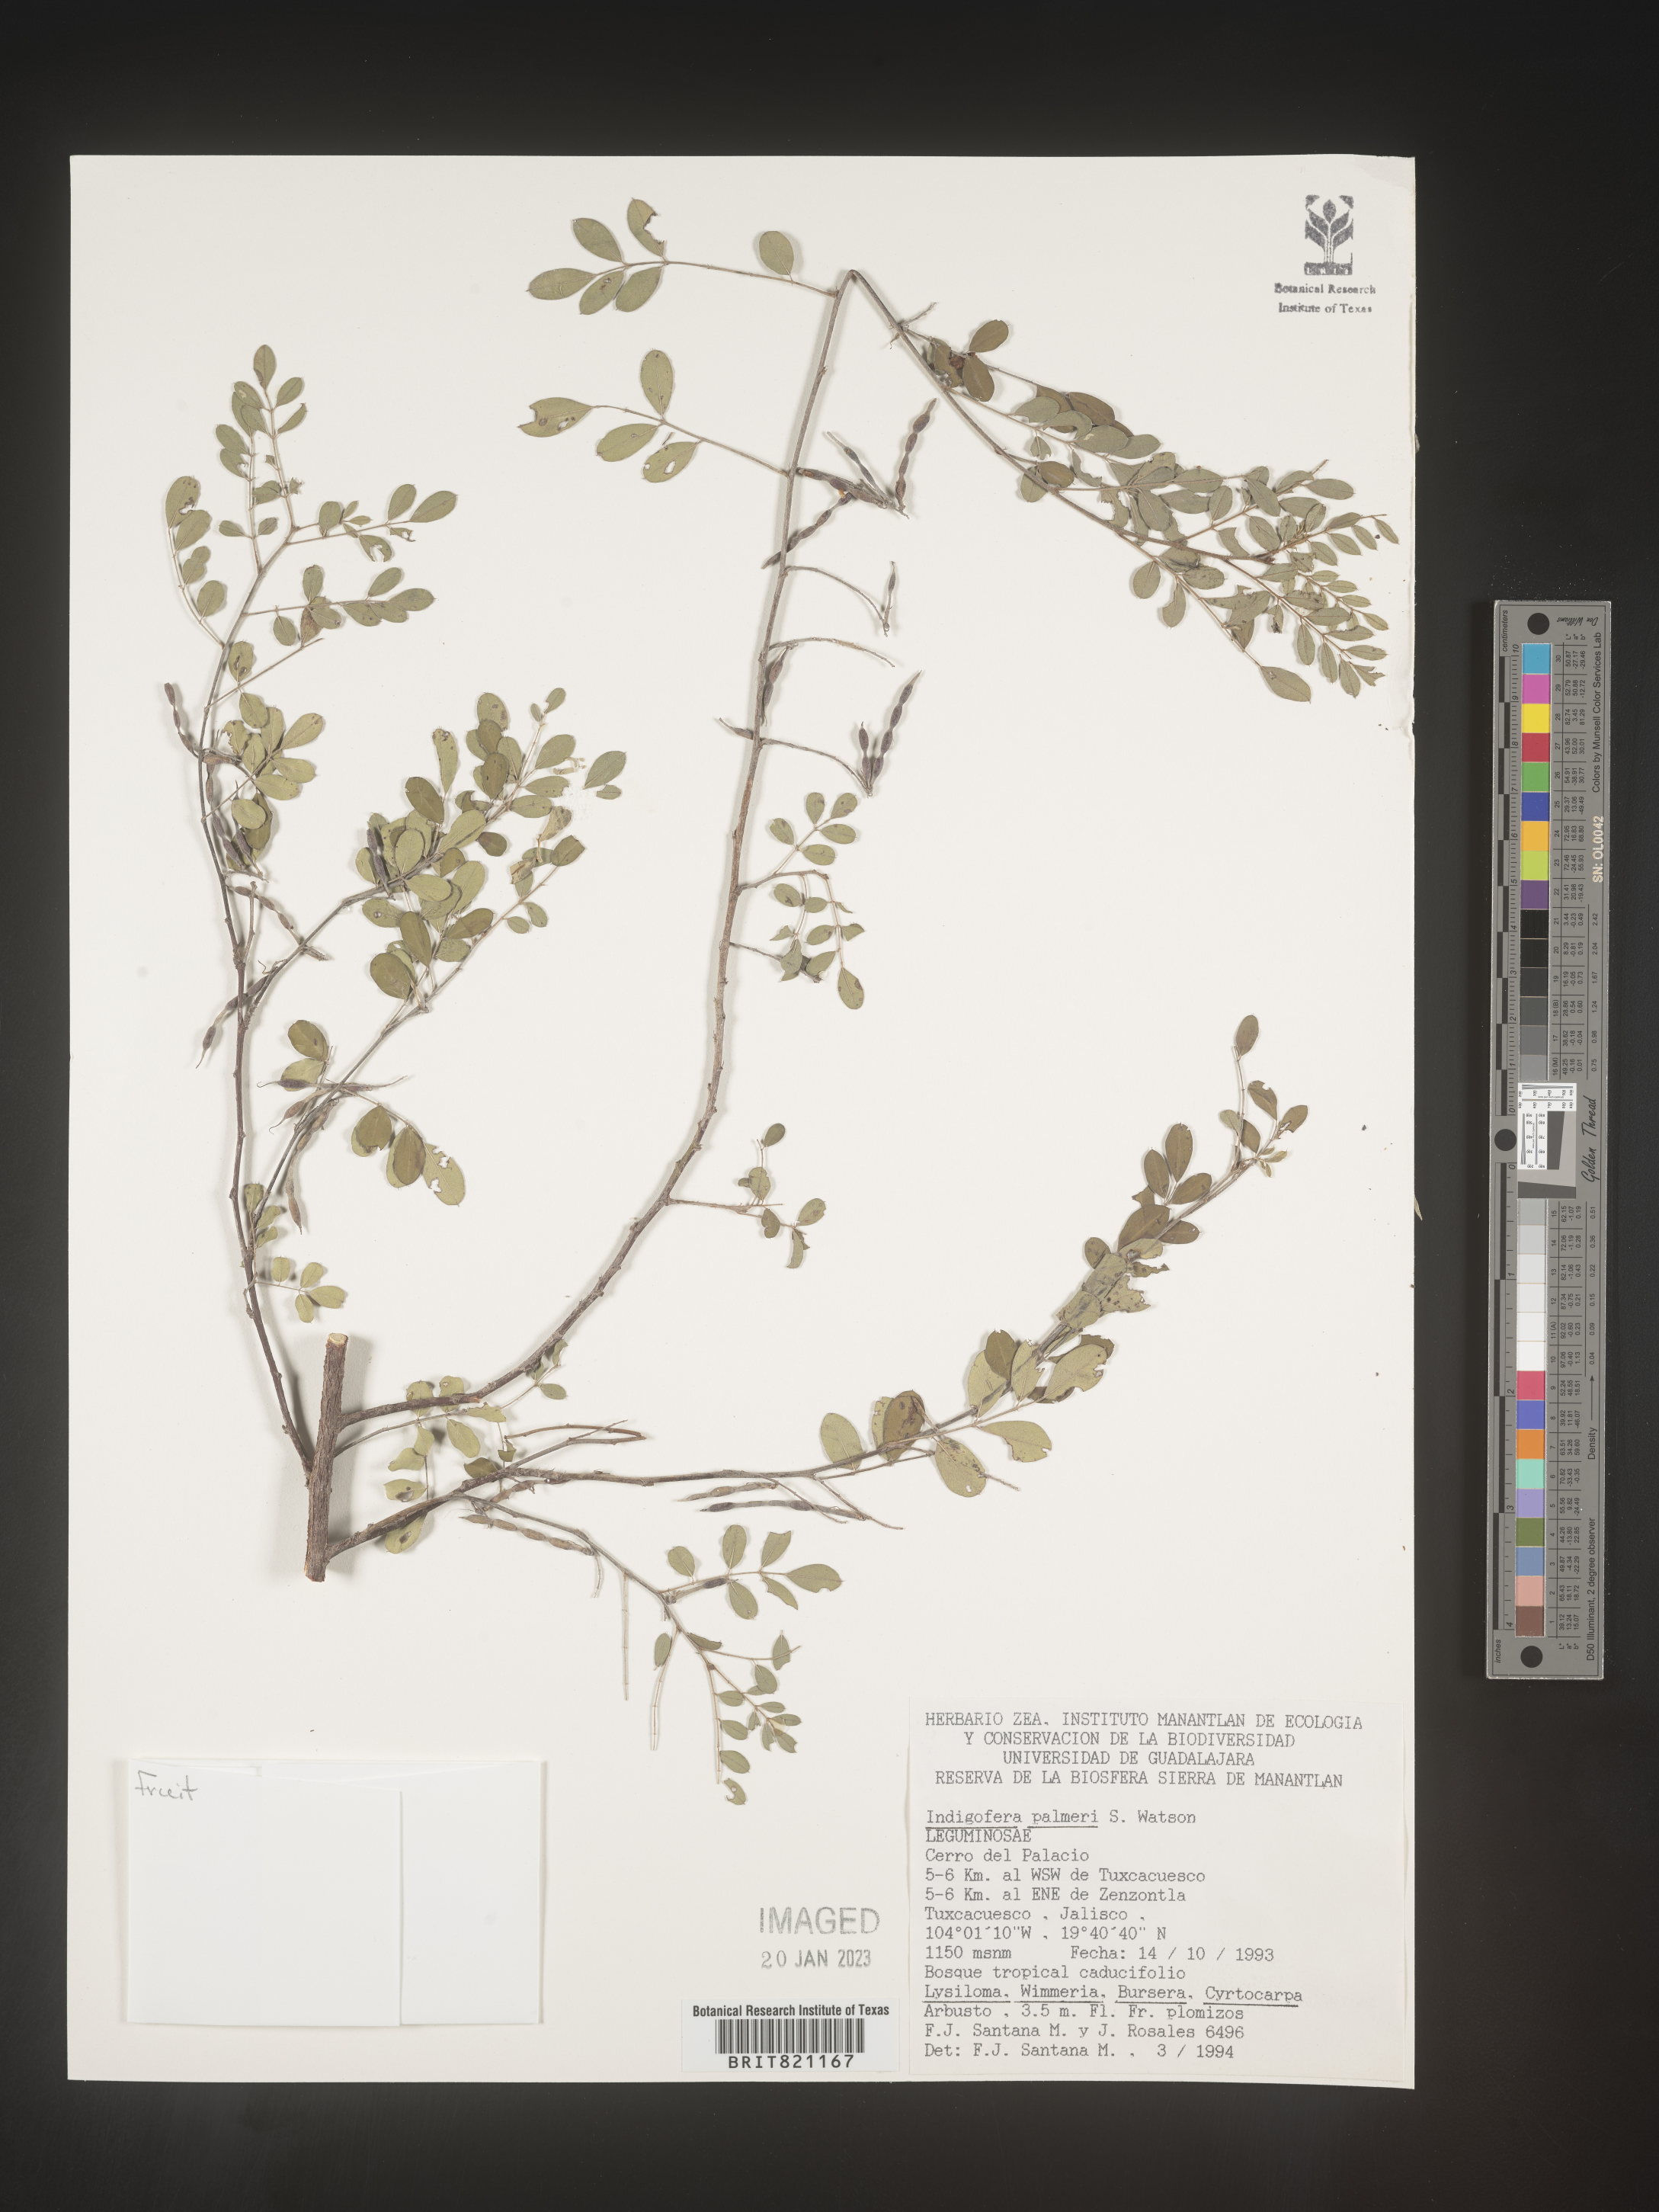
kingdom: Plantae
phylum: Tracheophyta
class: Magnoliopsida
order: Fabales
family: Fabaceae
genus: Indigofera
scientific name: Indigofera
